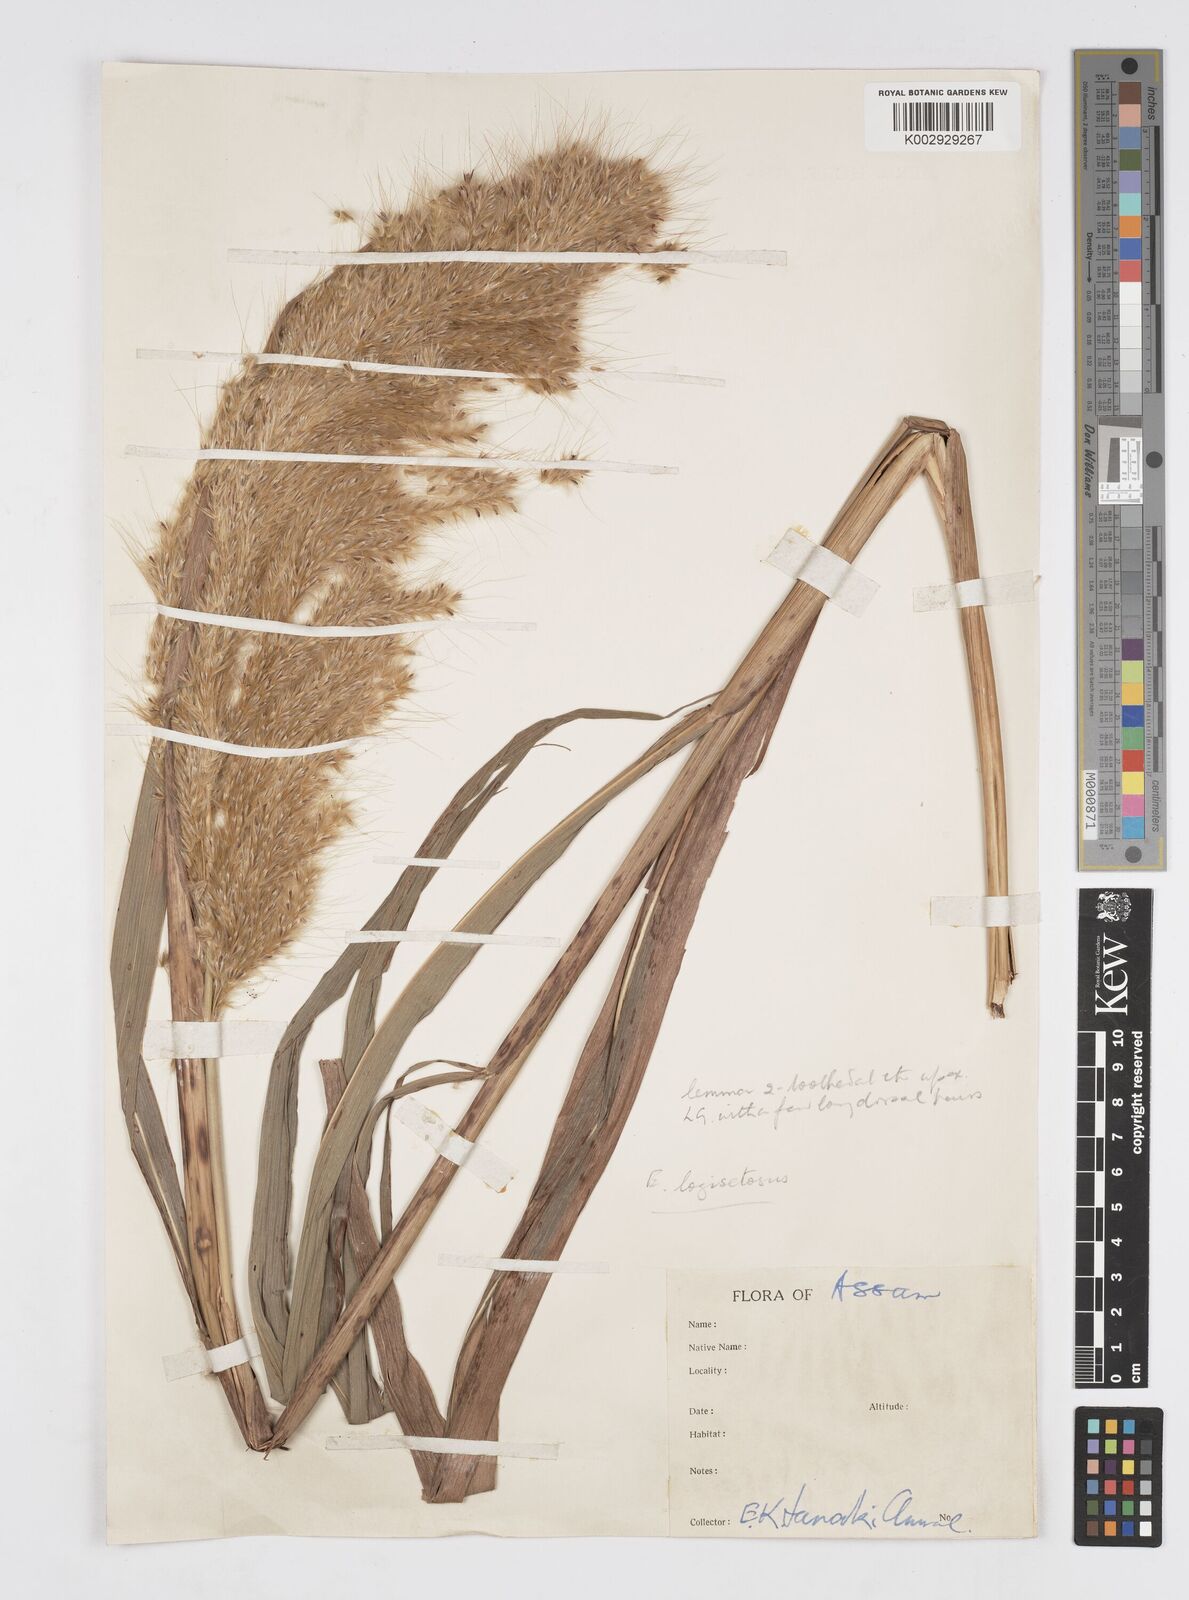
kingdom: Plantae
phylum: Tracheophyta
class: Liliopsida
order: Poales
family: Poaceae
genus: Saccharum
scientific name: Saccharum longesetosum
